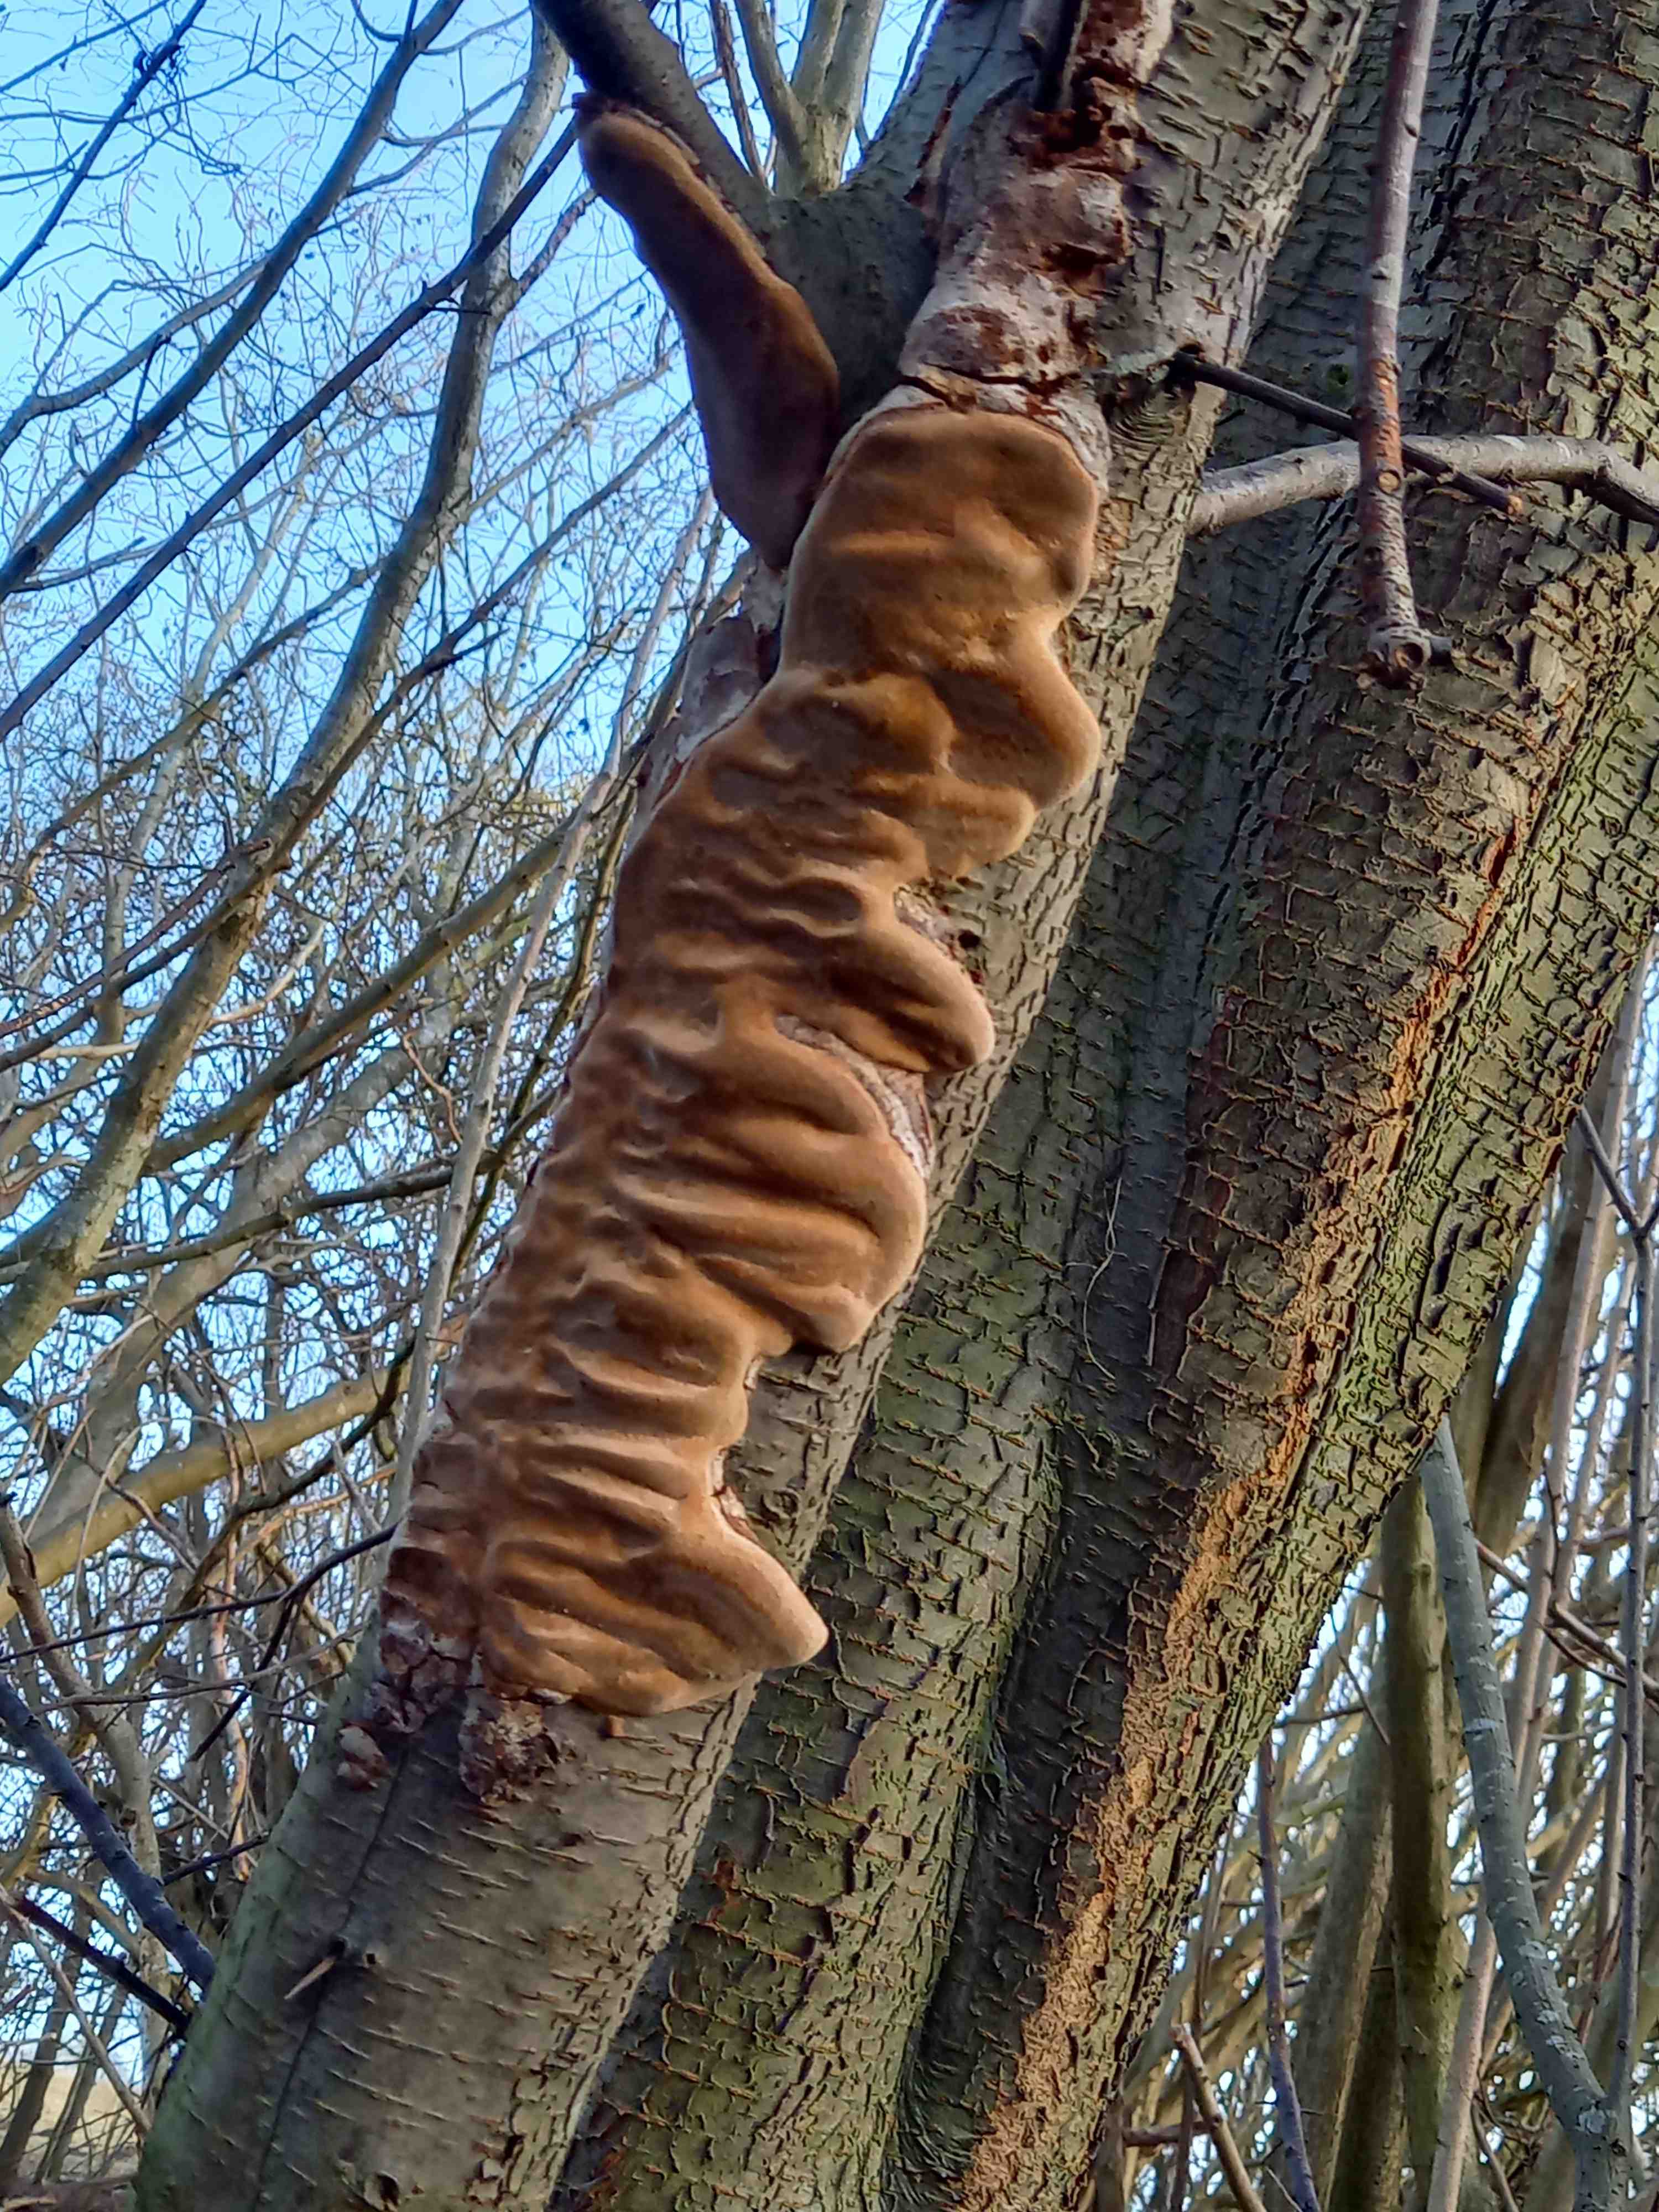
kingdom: Fungi
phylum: Basidiomycota
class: Agaricomycetes
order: Hymenochaetales
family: Hymenochaetaceae
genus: Phellinus
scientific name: Phellinus pomaceus
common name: blomme-ildporesvamp
